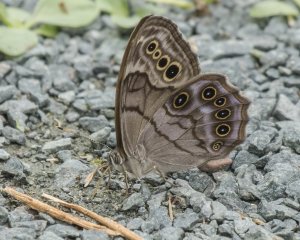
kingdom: Animalia
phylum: Arthropoda
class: Insecta
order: Lepidoptera
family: Nymphalidae
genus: Lethe
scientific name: Lethe anthedon
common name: Northern Pearly-Eye
